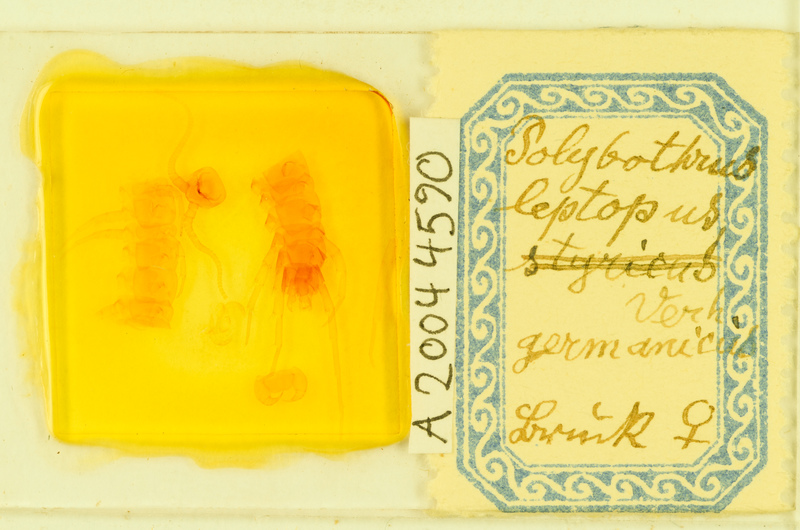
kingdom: Animalia
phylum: Arthropoda
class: Chilopoda
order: Lithobiomorpha
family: Lithobiidae
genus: Polybothrus
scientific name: Polybothrus leptopus
